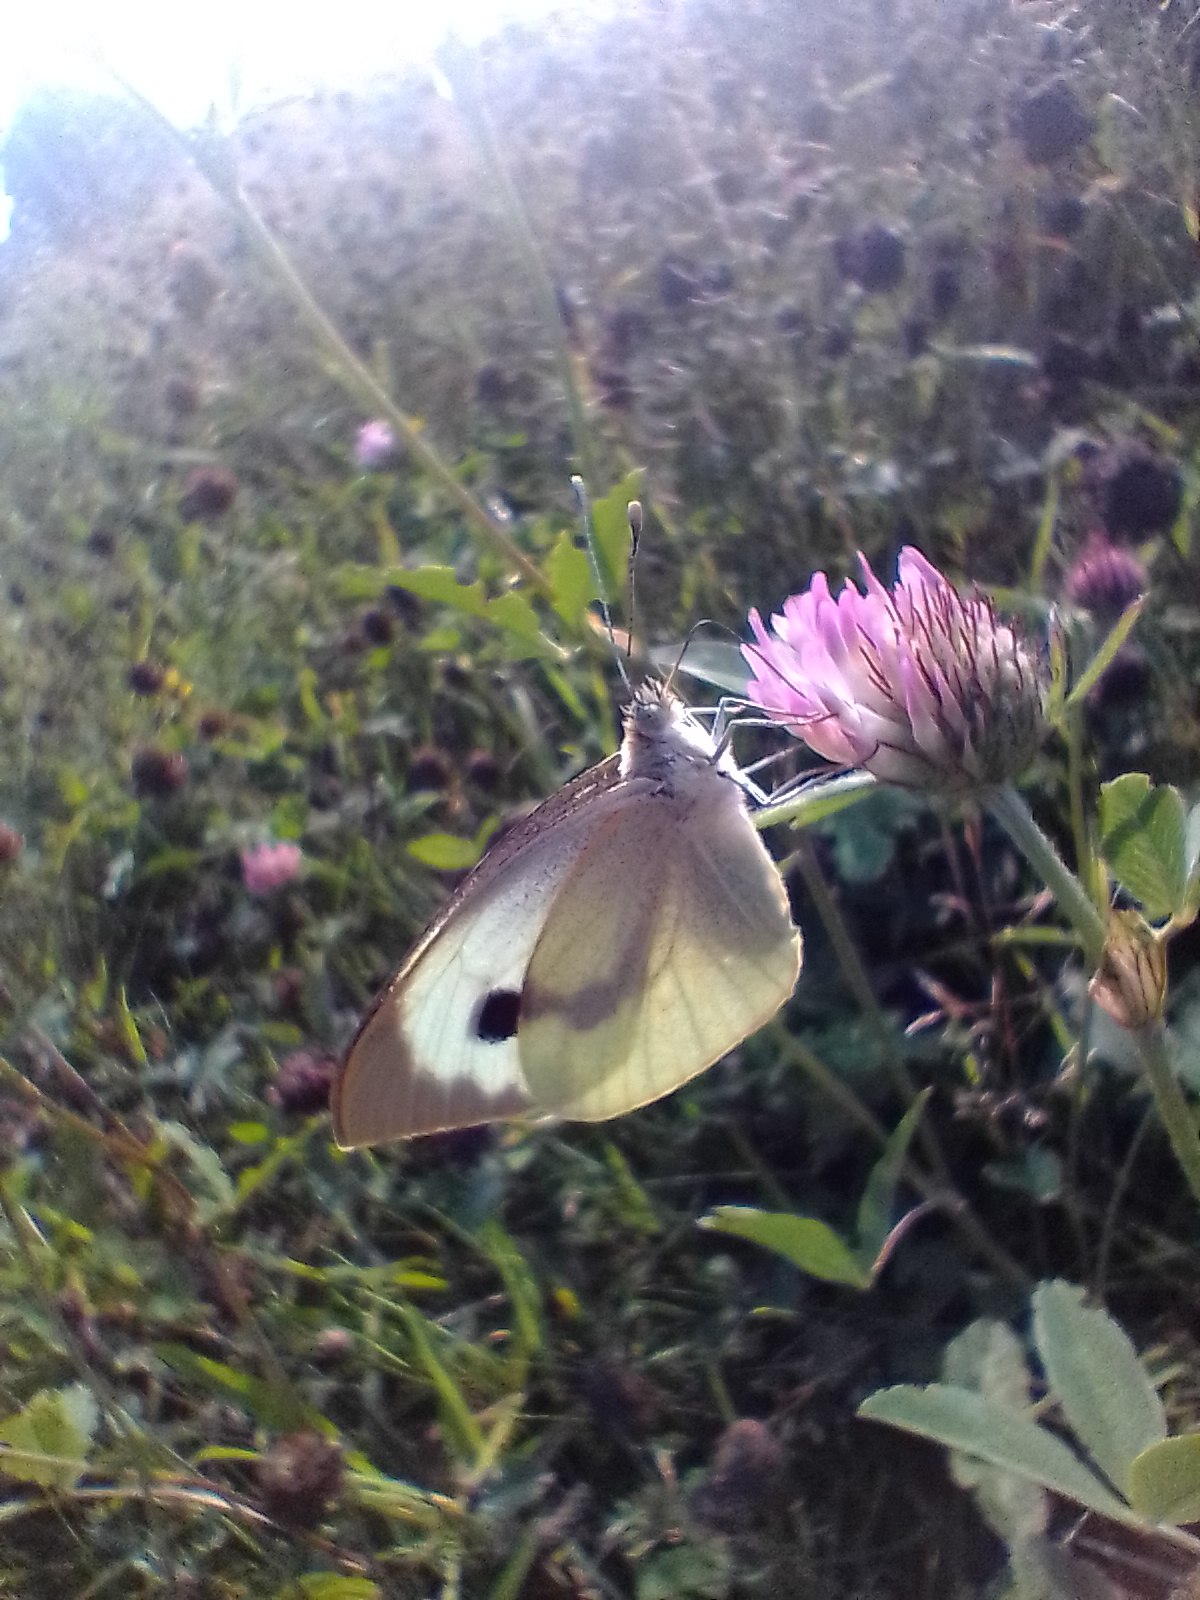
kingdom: Animalia
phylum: Arthropoda
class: Insecta
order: Lepidoptera
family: Pieridae
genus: Pieris
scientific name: Pieris brassicae
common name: Stor kålsommerfugl
